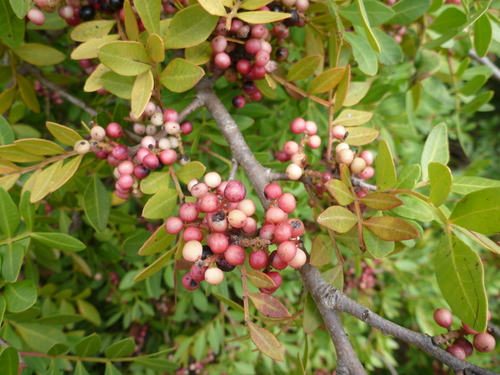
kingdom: Plantae
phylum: Tracheophyta
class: Magnoliopsida
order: Sapindales
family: Anacardiaceae
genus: Pistacia
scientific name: Pistacia lentiscus
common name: Lentisk
